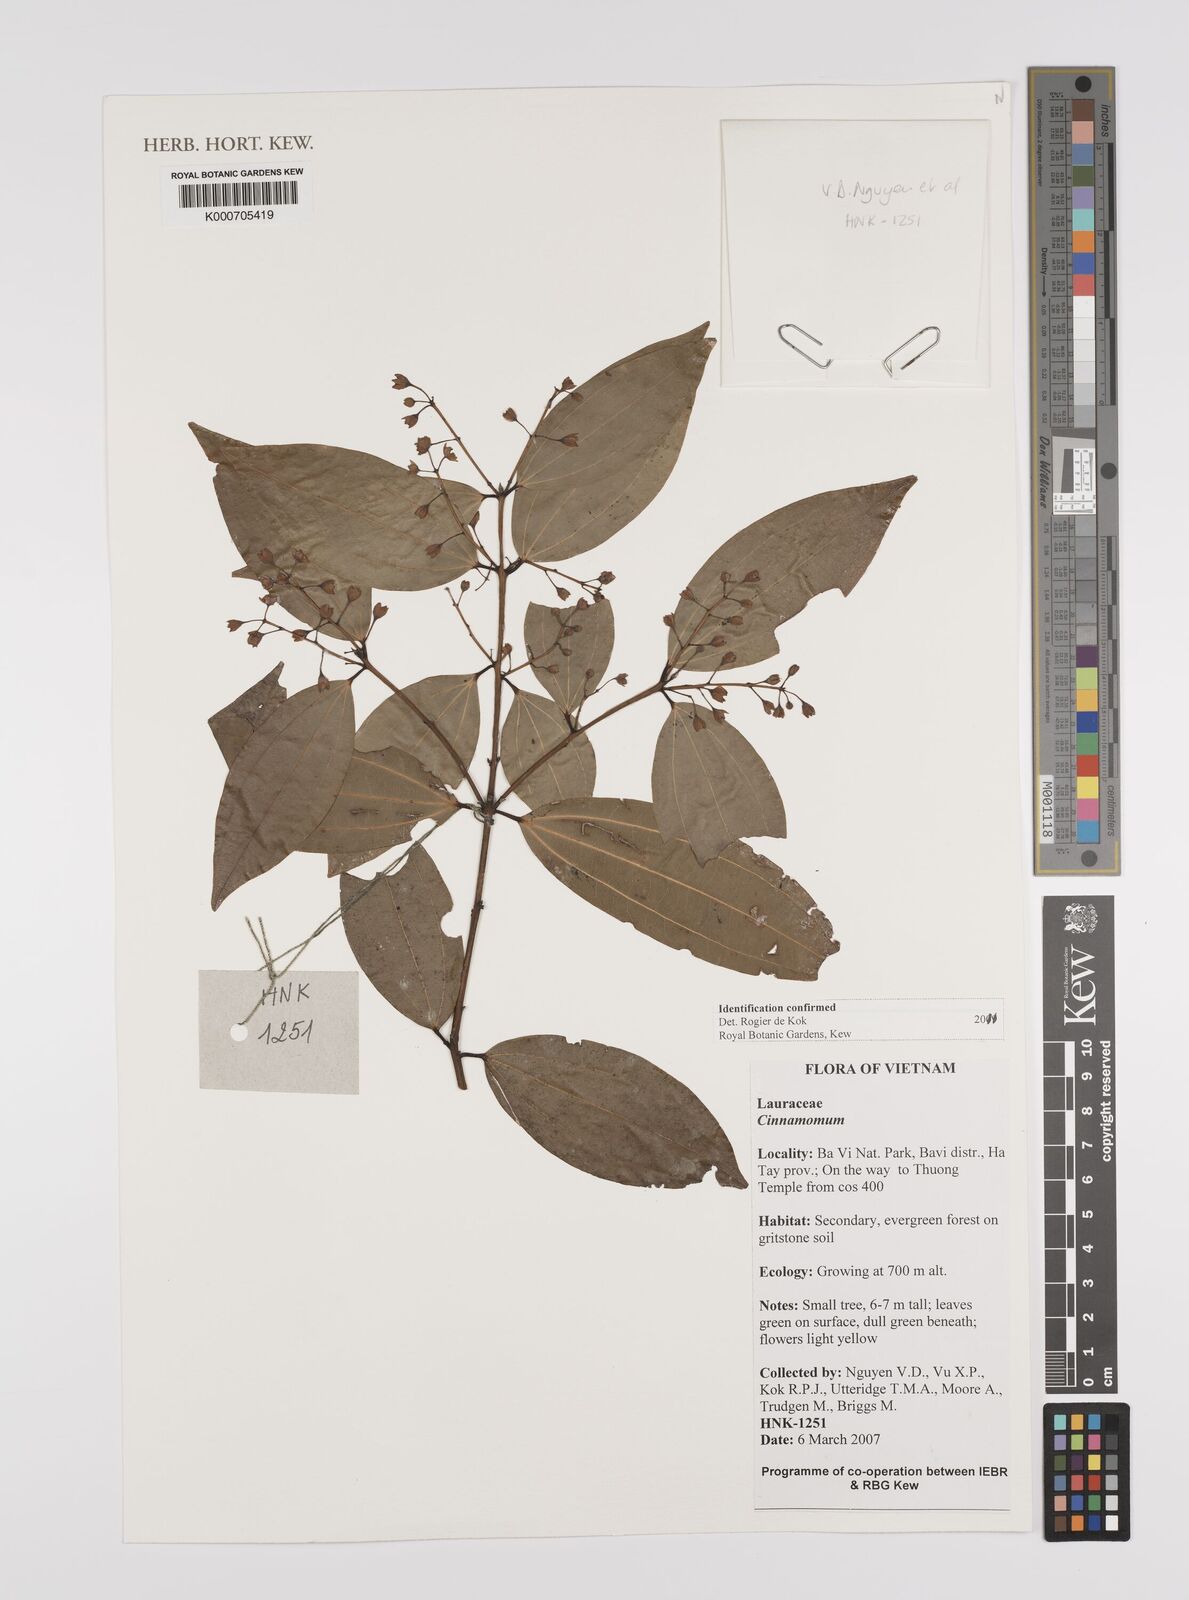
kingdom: Plantae
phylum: Tracheophyta
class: Magnoliopsida
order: Laurales
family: Lauraceae
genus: Cinnamomum
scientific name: Cinnamomum
